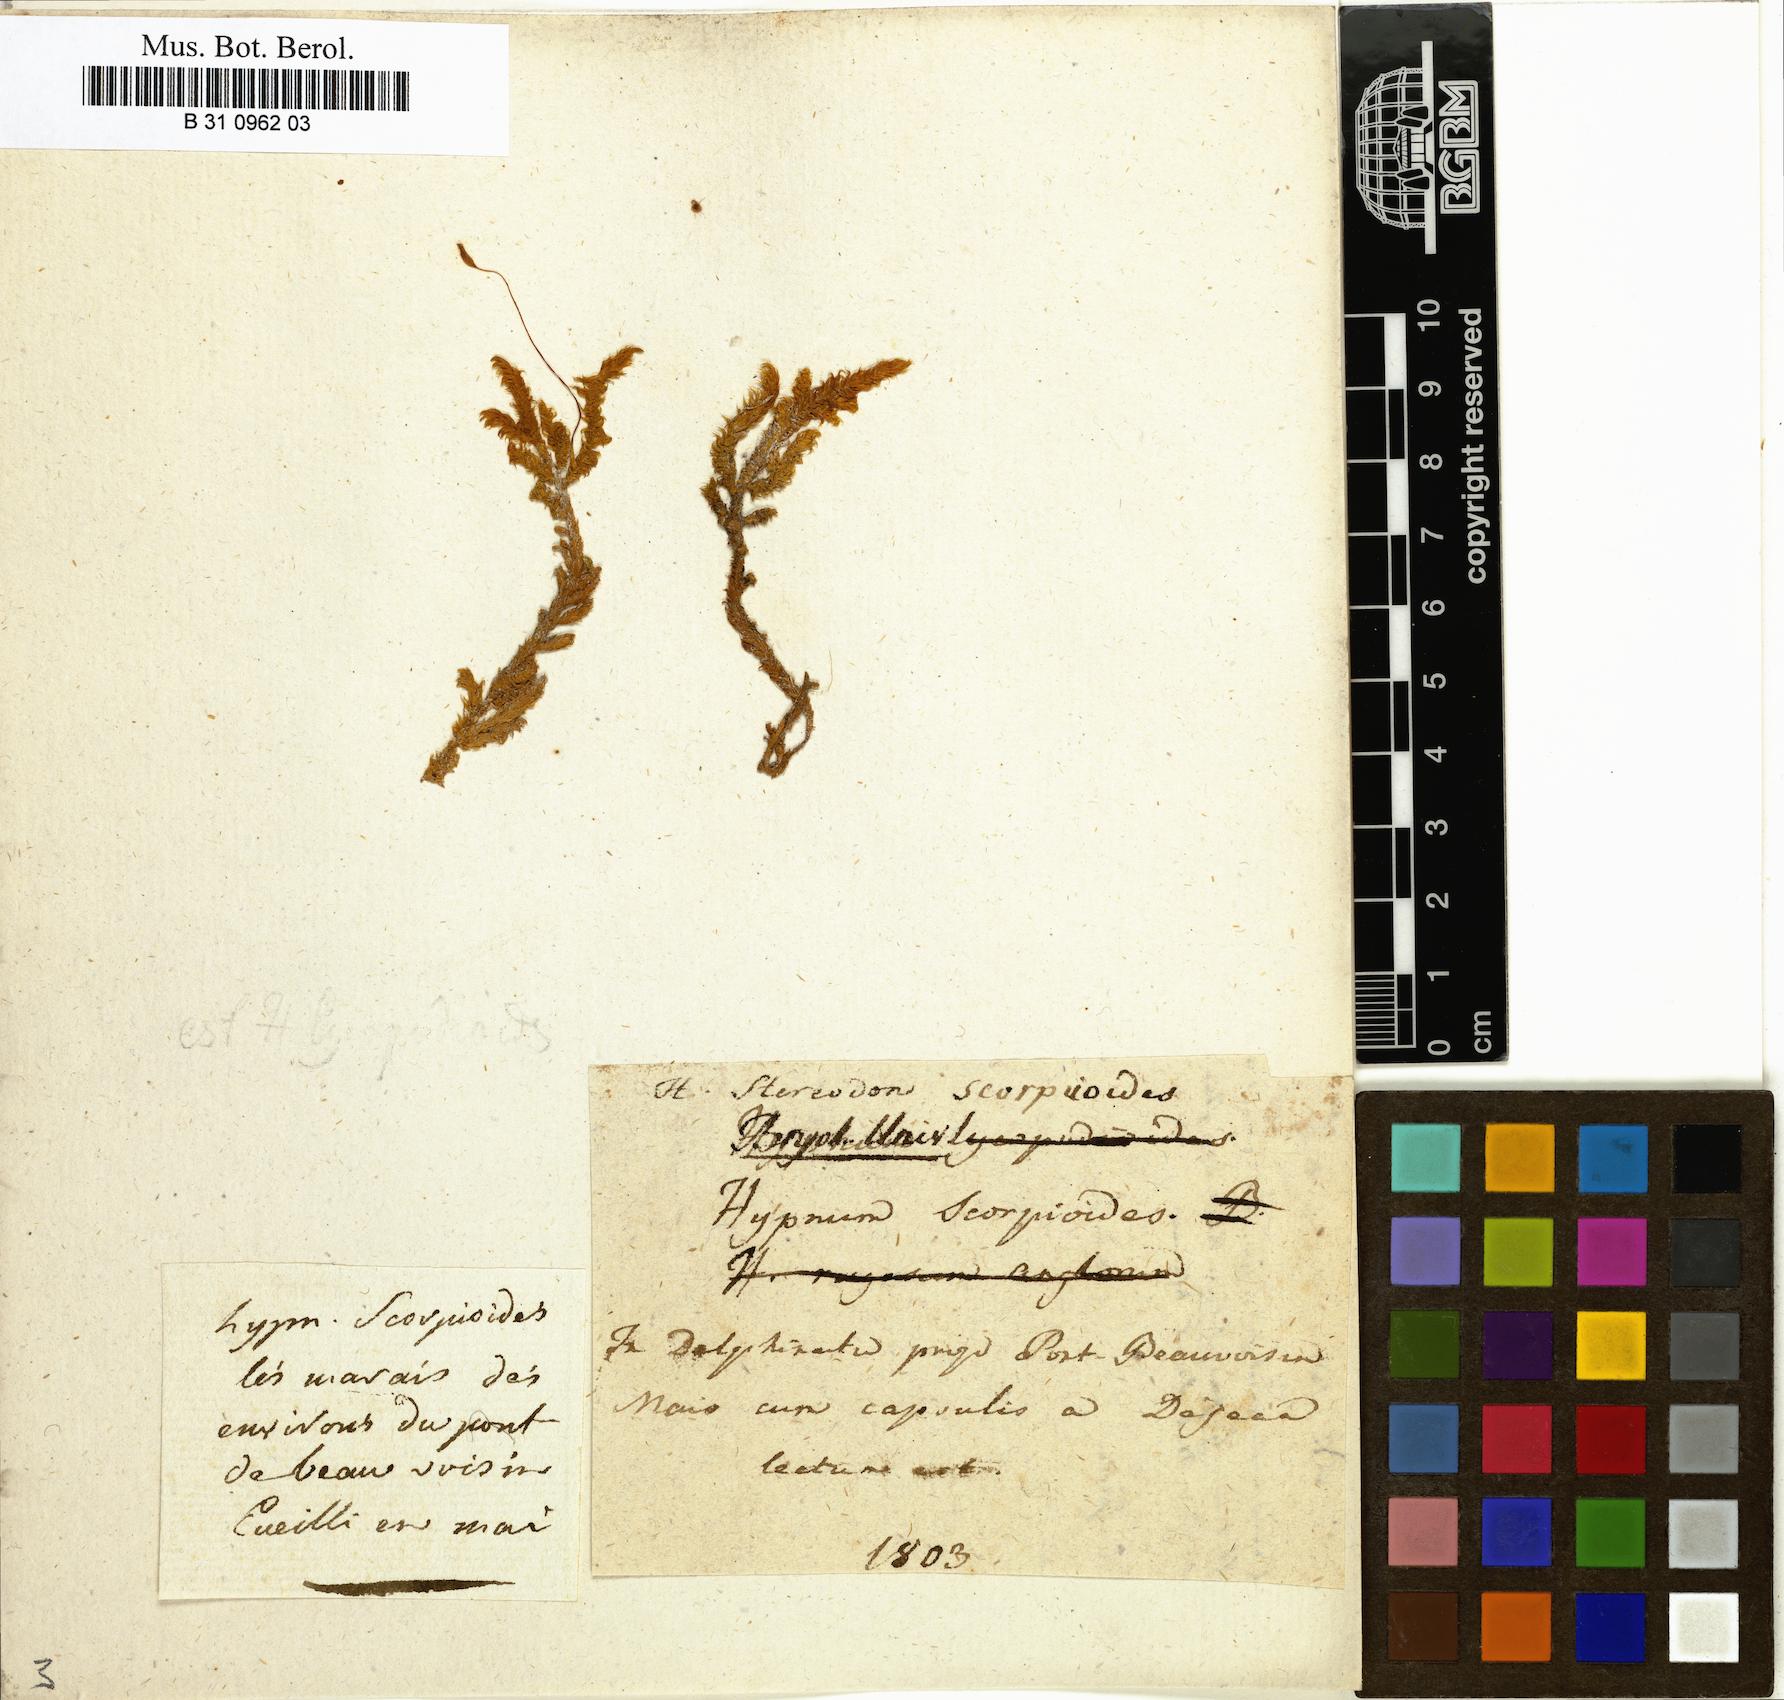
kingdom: Plantae
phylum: Bryophyta
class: Bryopsida
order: Hypnales
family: Scorpidiaceae
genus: Scorpidium
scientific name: Scorpidium scorpioides
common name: Hooked scorpion moss
